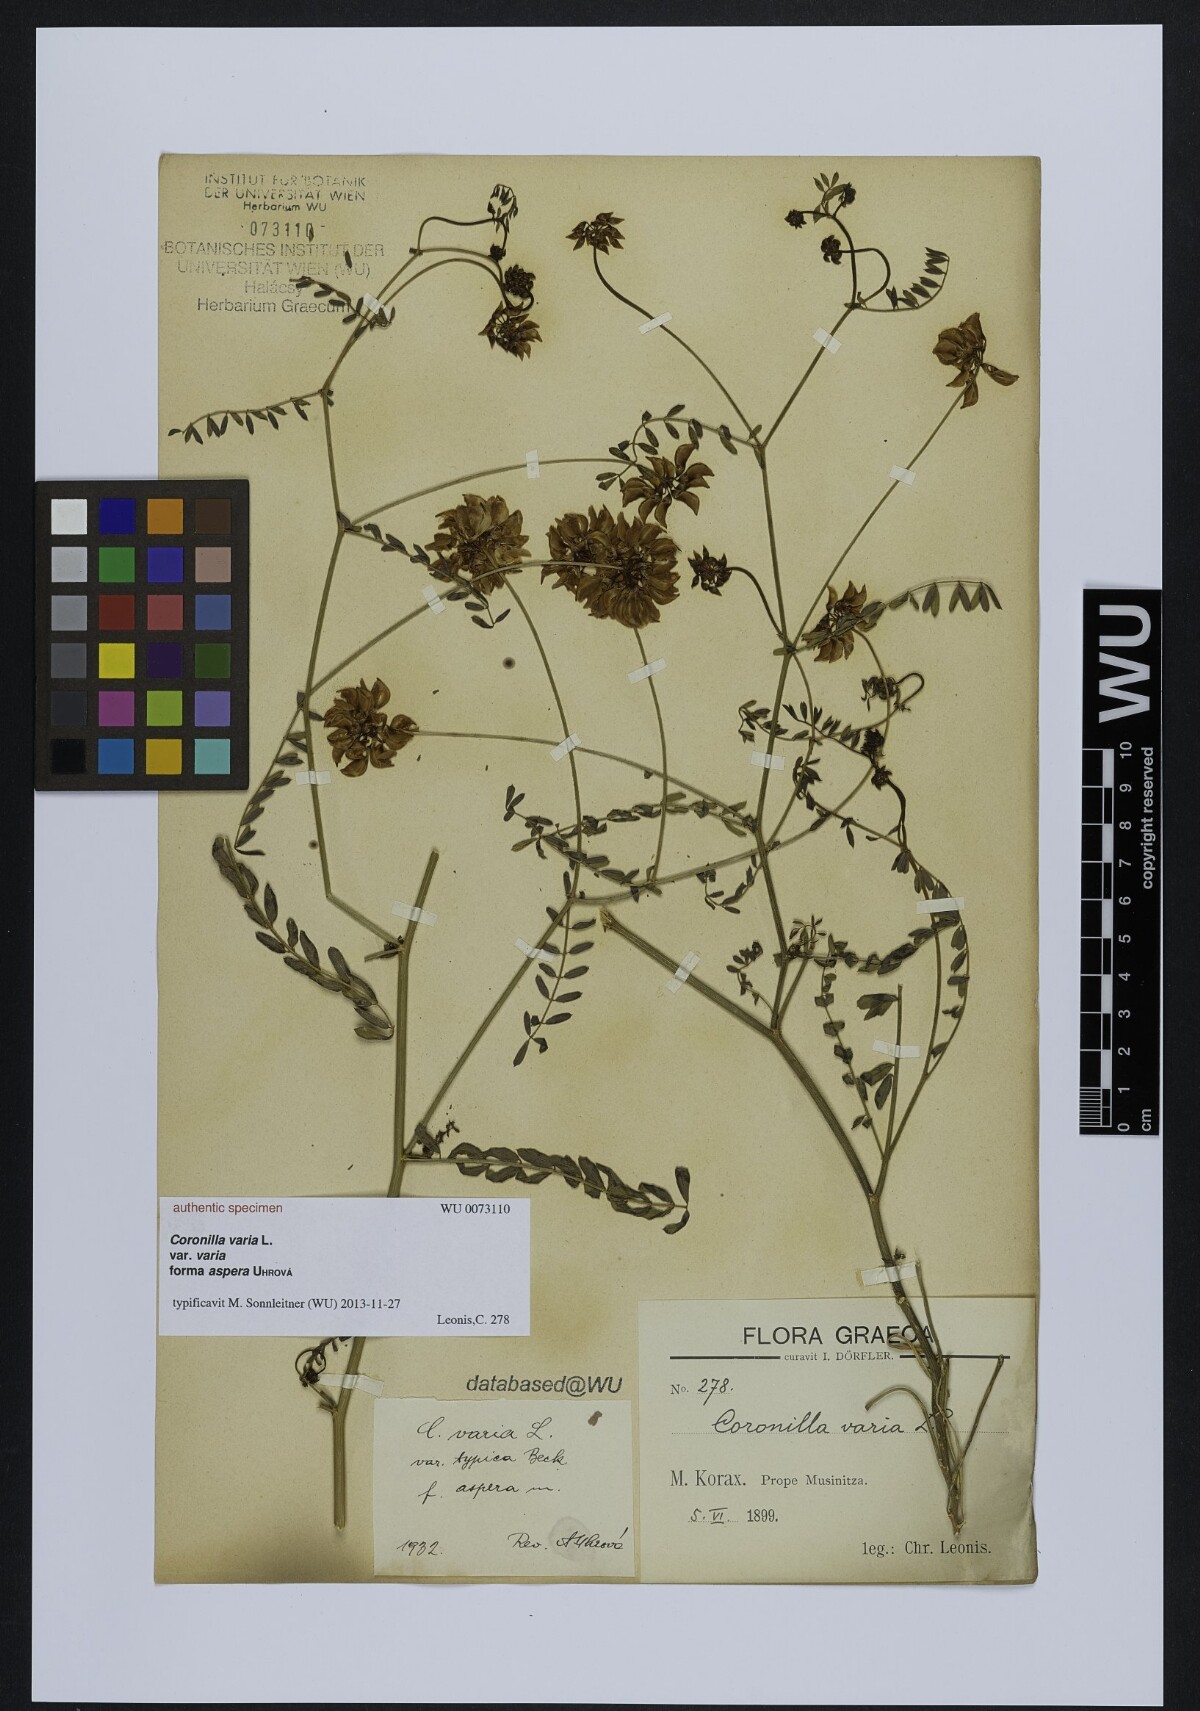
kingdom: Plantae
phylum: Tracheophyta
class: Magnoliopsida
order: Fabales
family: Fabaceae
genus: Coronilla
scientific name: Coronilla varia
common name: Crownvetch
